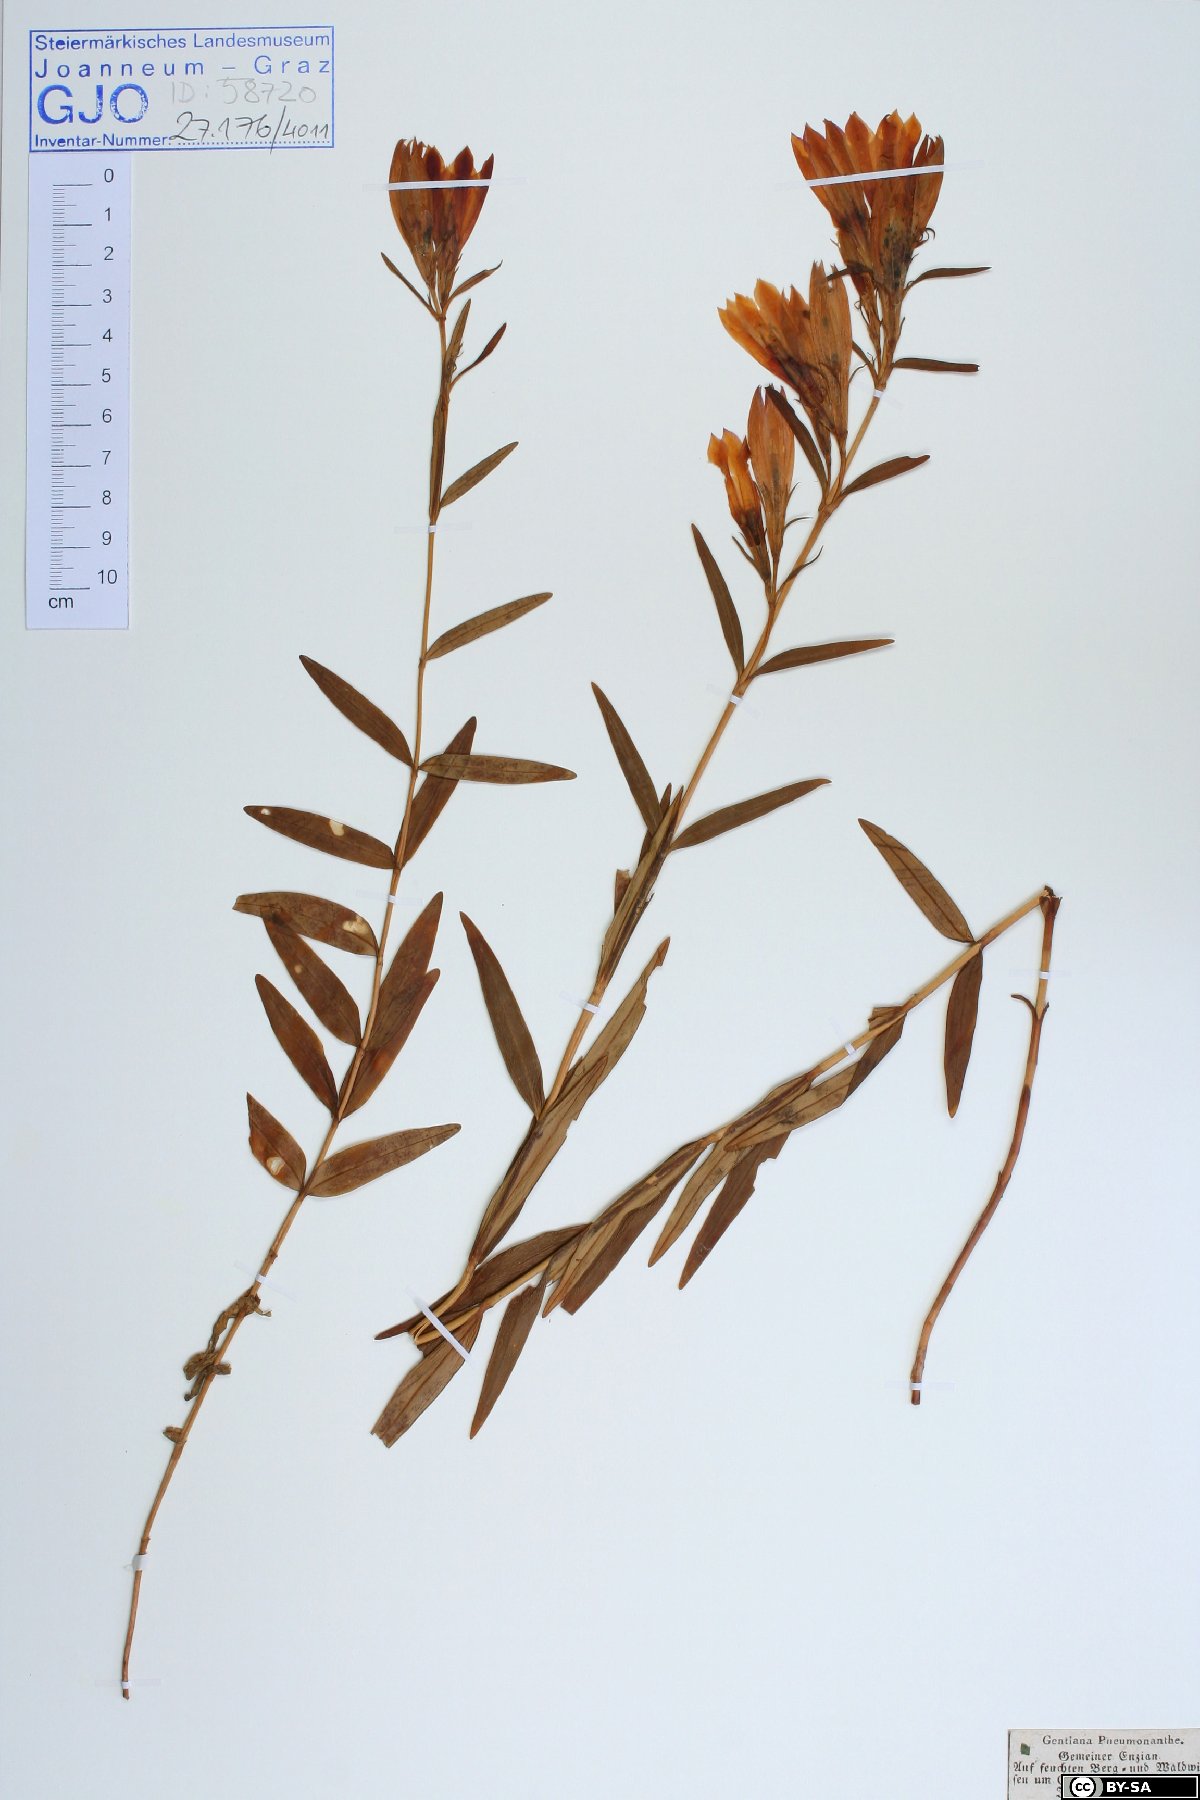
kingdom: Plantae
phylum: Tracheophyta
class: Magnoliopsida
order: Gentianales
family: Gentianaceae
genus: Gentiana
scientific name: Gentiana pneumonanthe
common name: Marsh gentian
